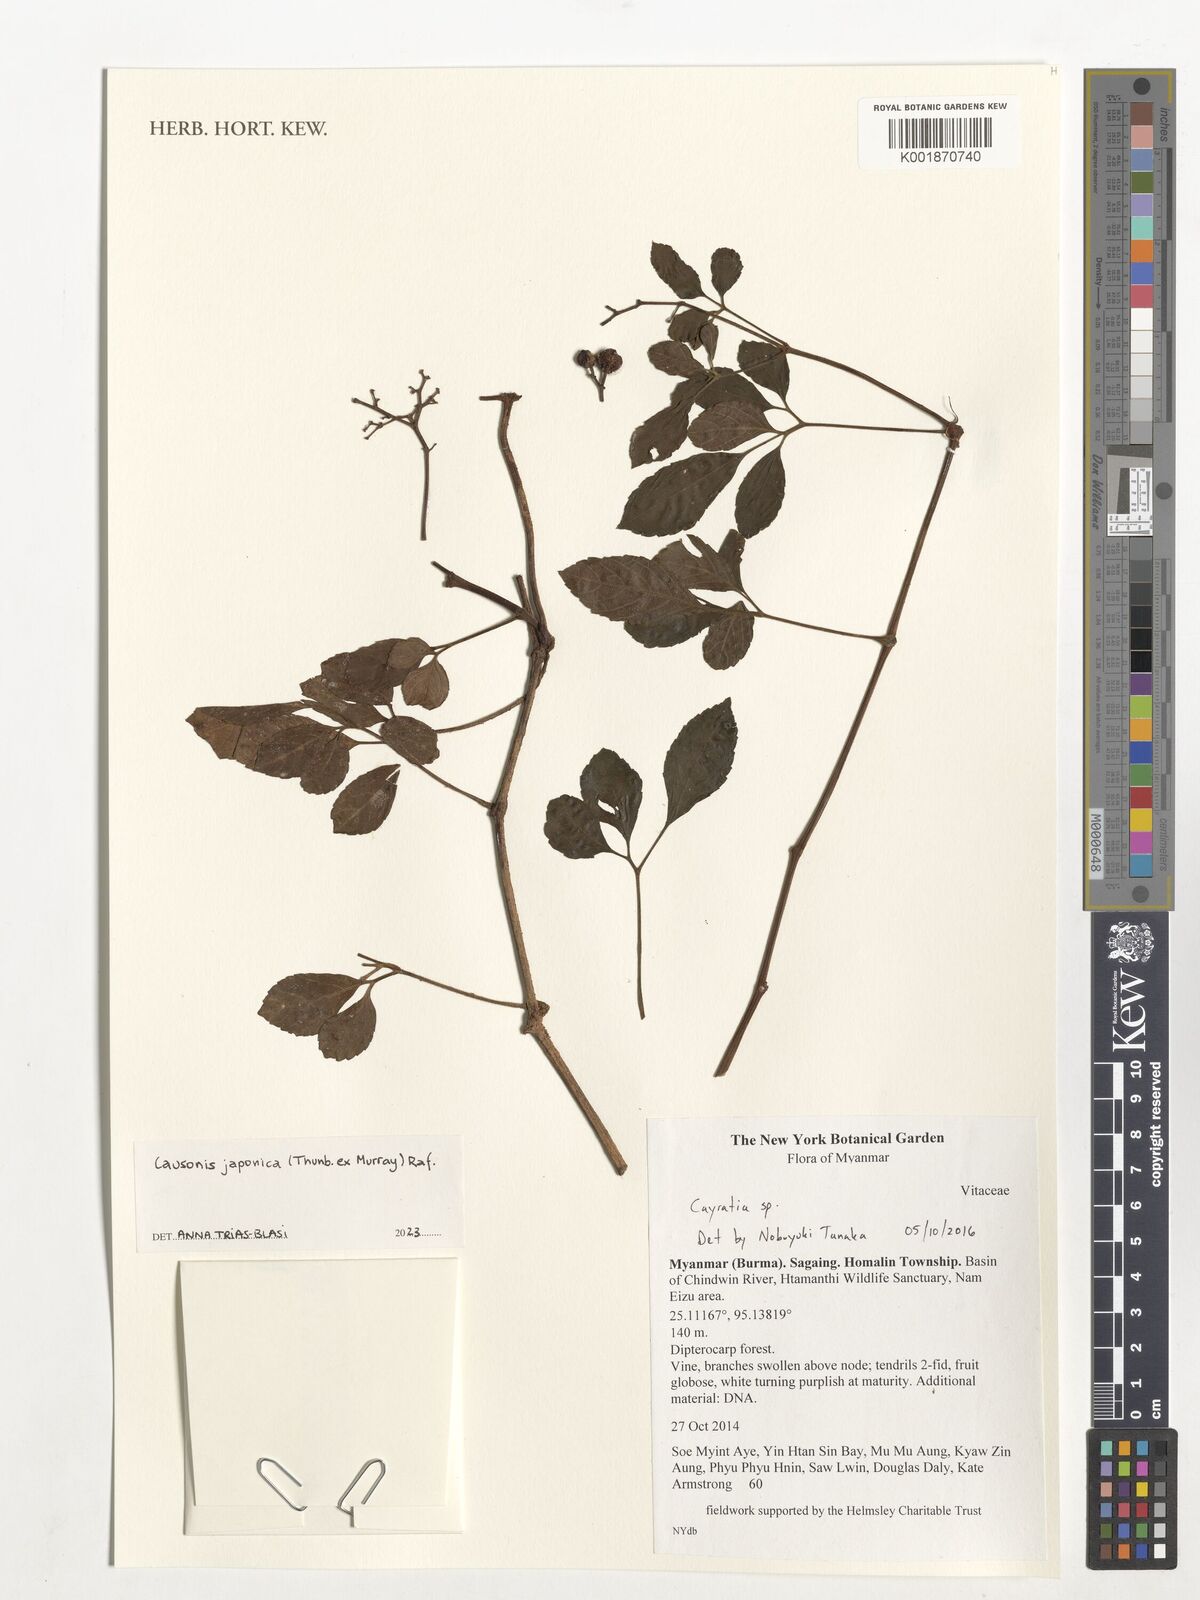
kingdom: Plantae
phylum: Tracheophyta
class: Magnoliopsida
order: Vitales
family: Vitaceae
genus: Causonis
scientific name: Causonis japonica
